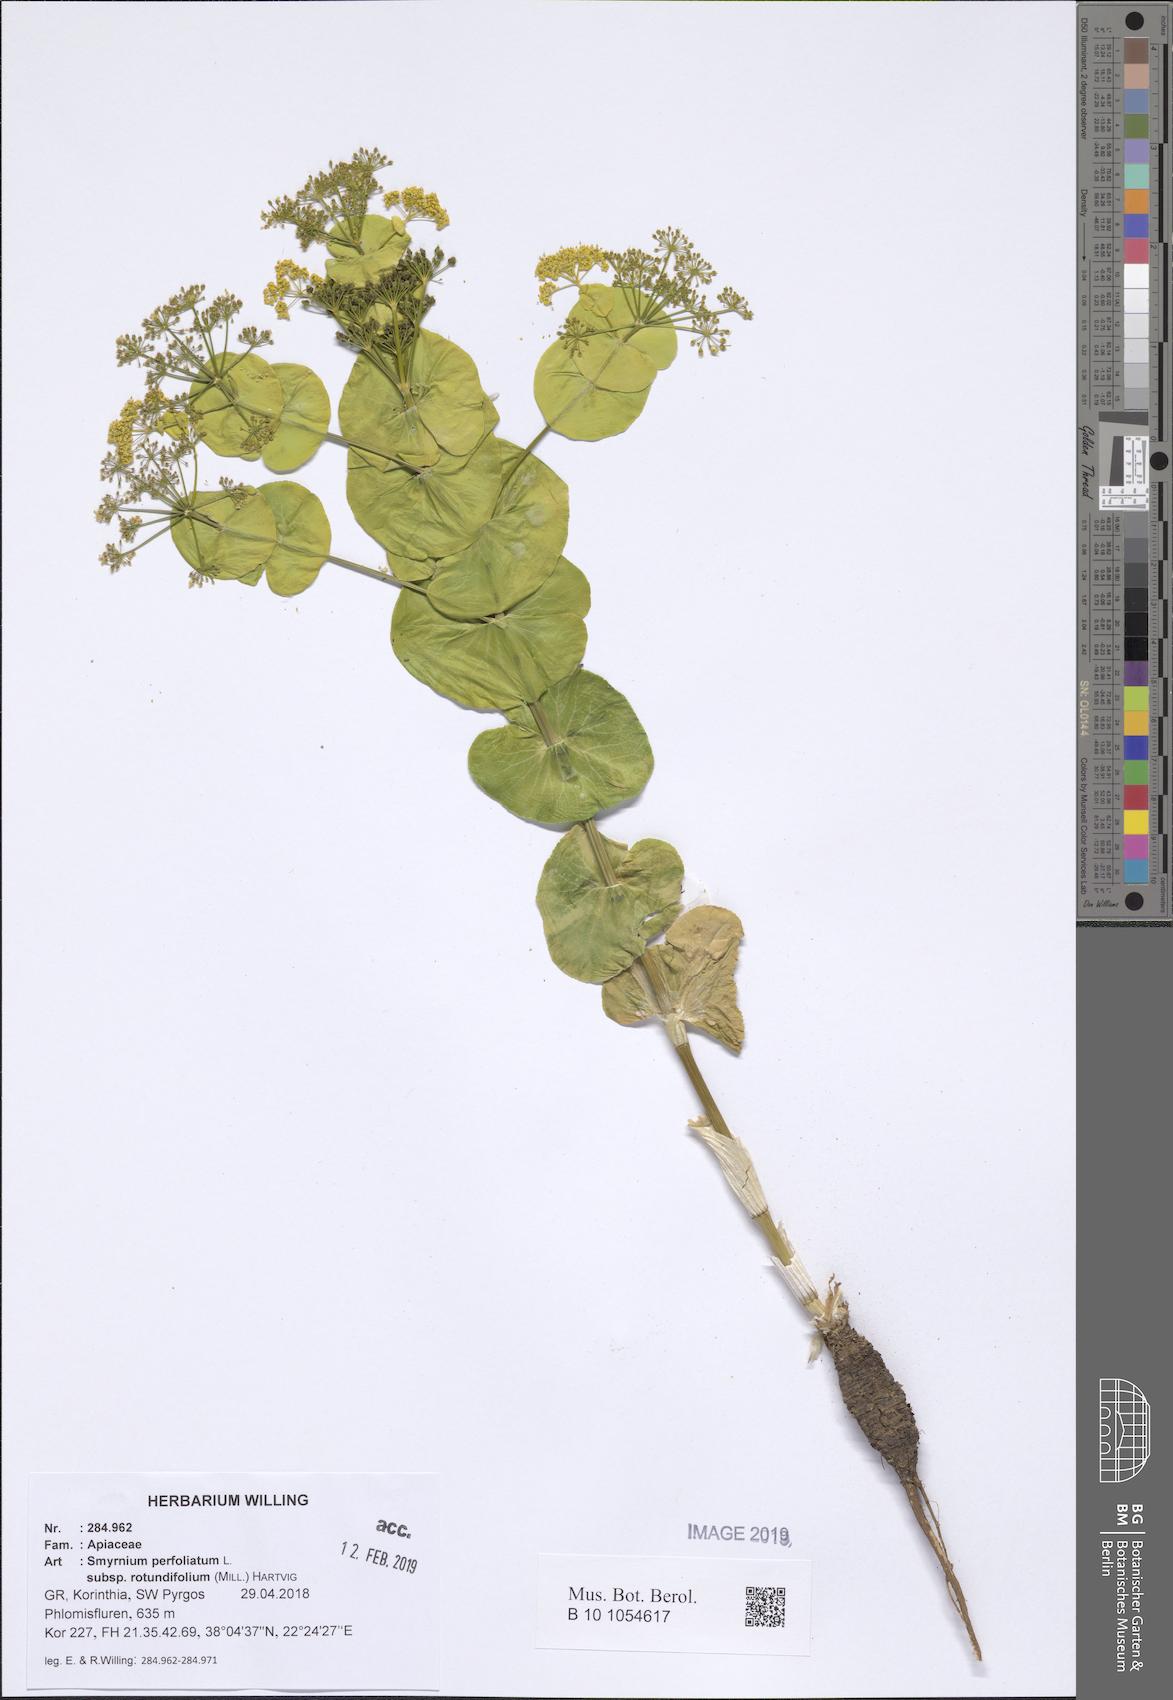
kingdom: Plantae
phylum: Tracheophyta
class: Magnoliopsida
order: Apiales
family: Apiaceae
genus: Smyrnium
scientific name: Smyrnium perfoliatum
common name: Perfoliate alexanders
